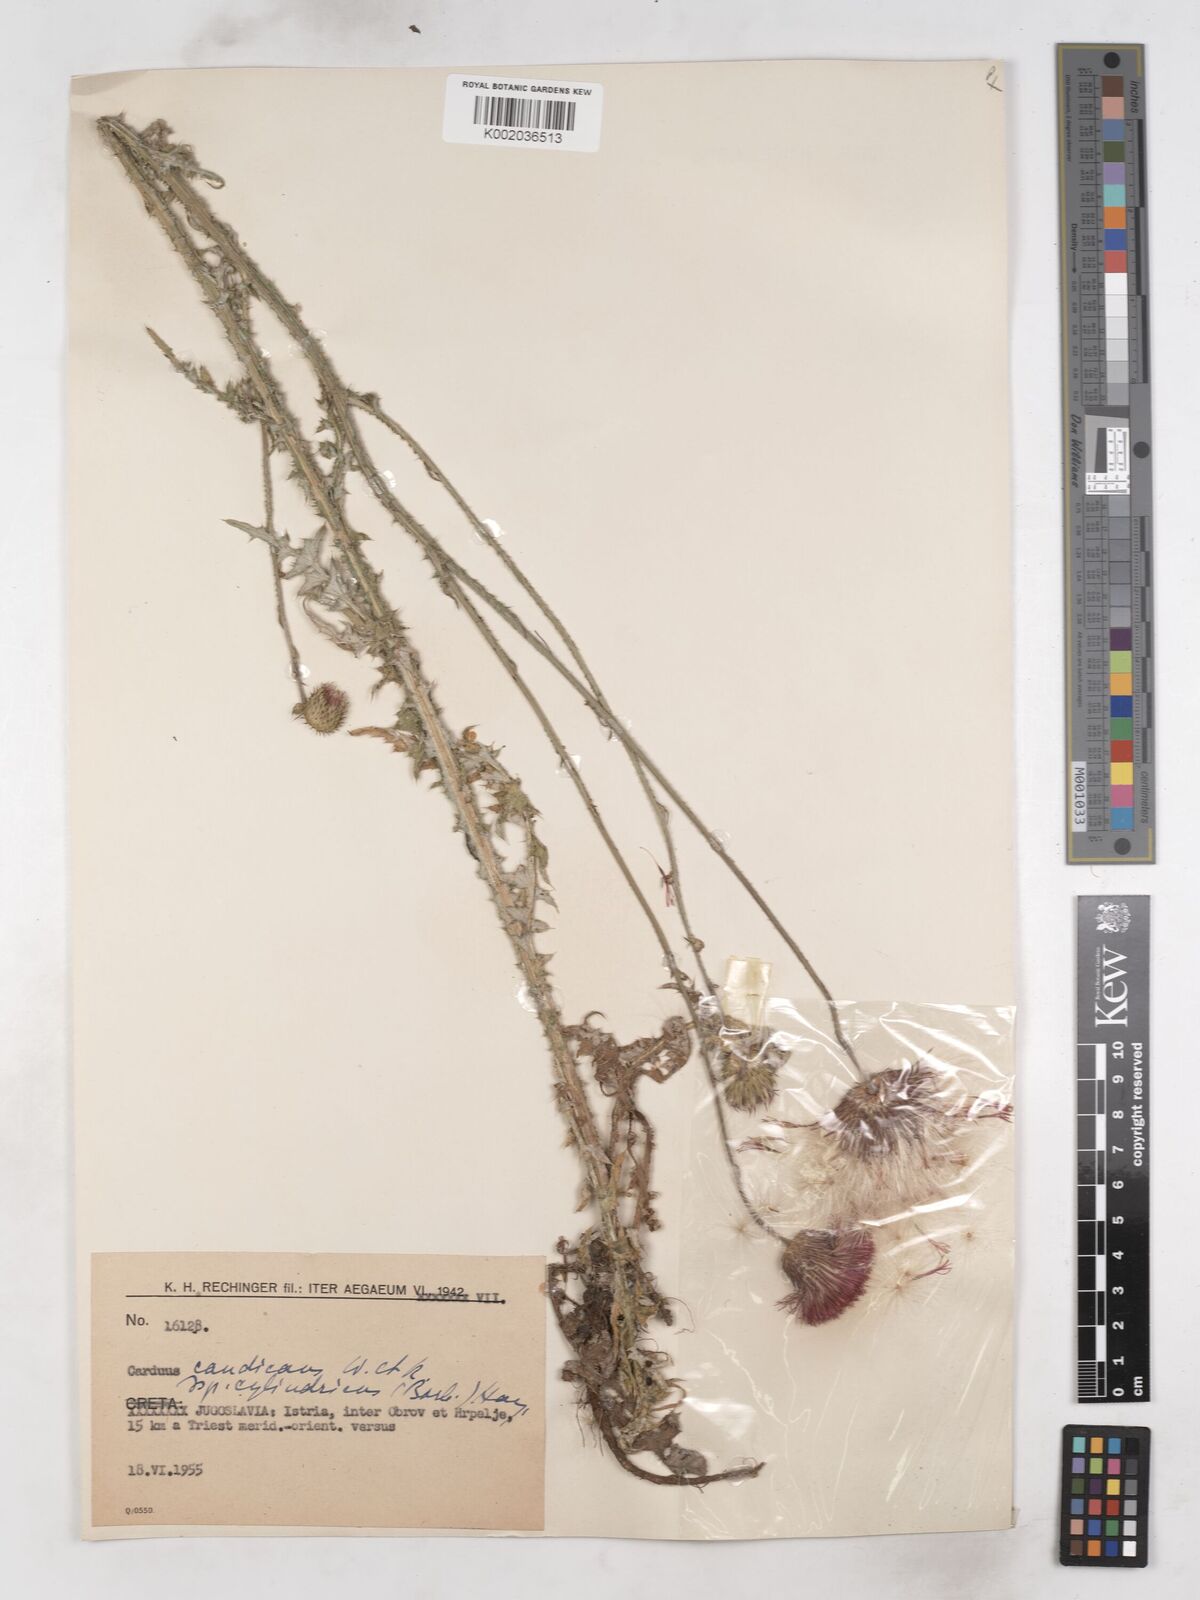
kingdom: Plantae
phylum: Tracheophyta
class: Magnoliopsida
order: Asterales
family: Asteraceae
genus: Carduus
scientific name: Carduus collinus
